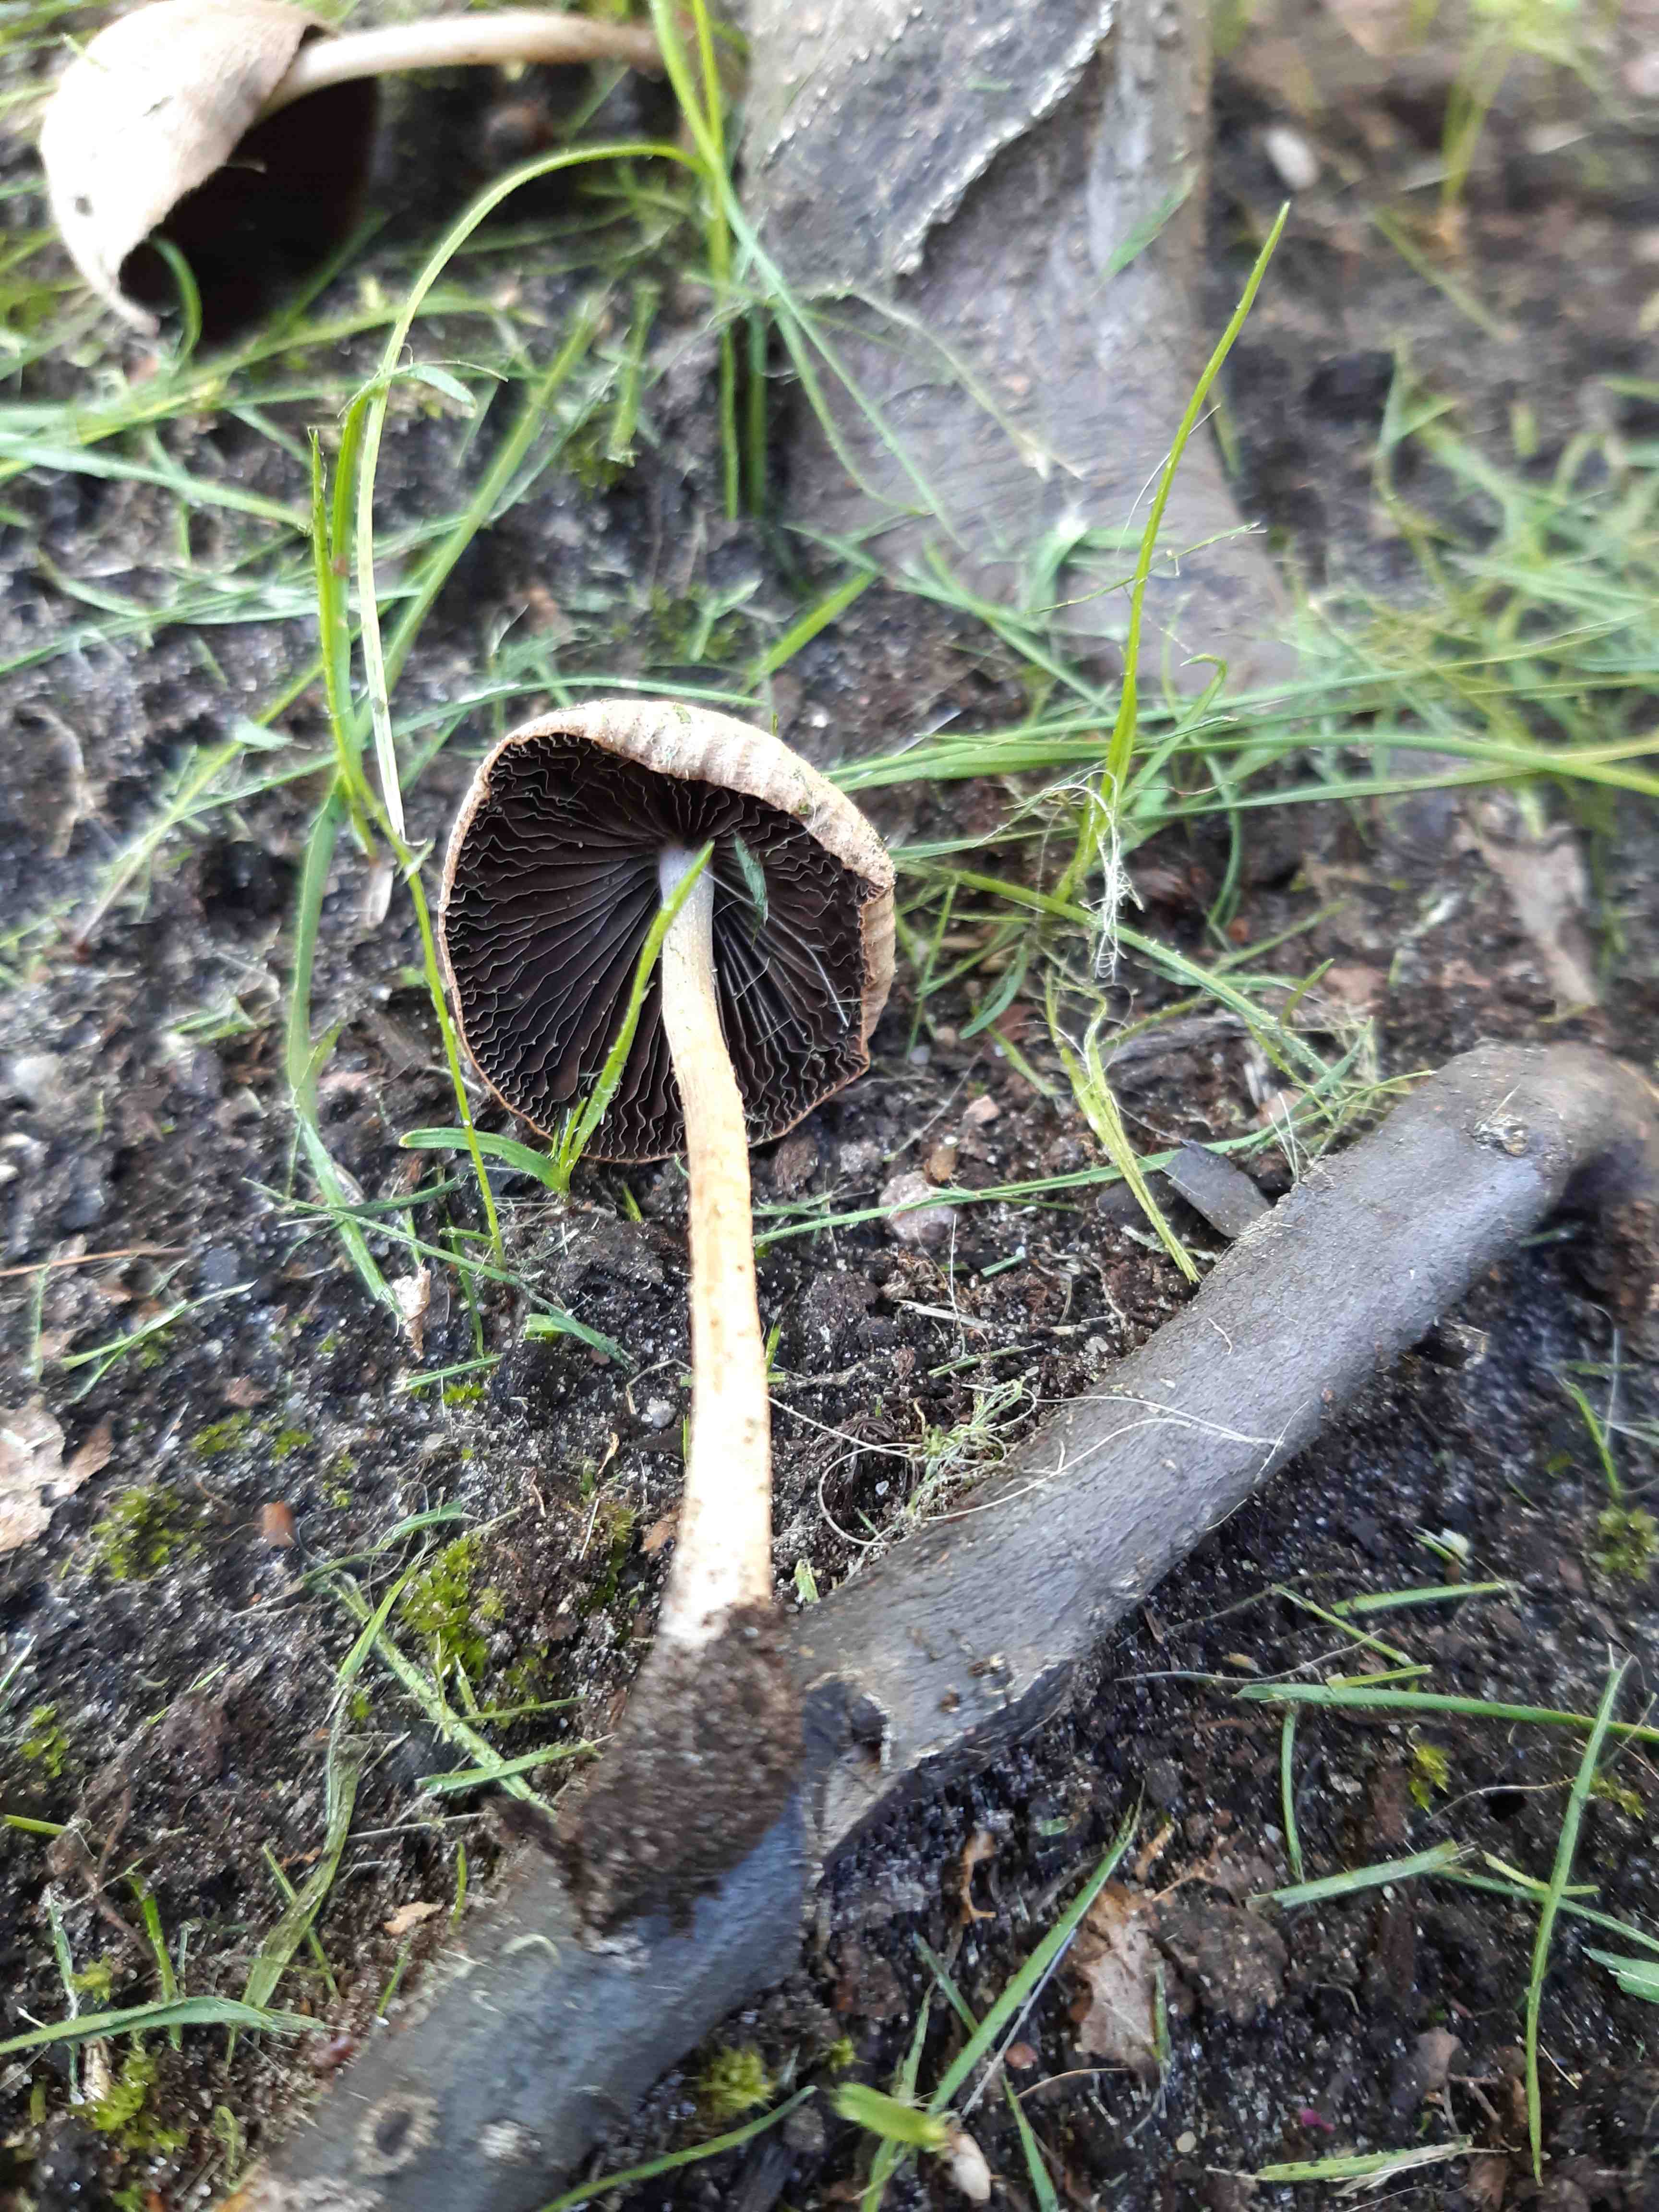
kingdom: Fungi
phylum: Basidiomycota
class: Agaricomycetes
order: Agaricales
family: Psathyrellaceae
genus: Candolleomyces
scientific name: Candolleomyces candolleanus
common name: Candolles mørkhat
